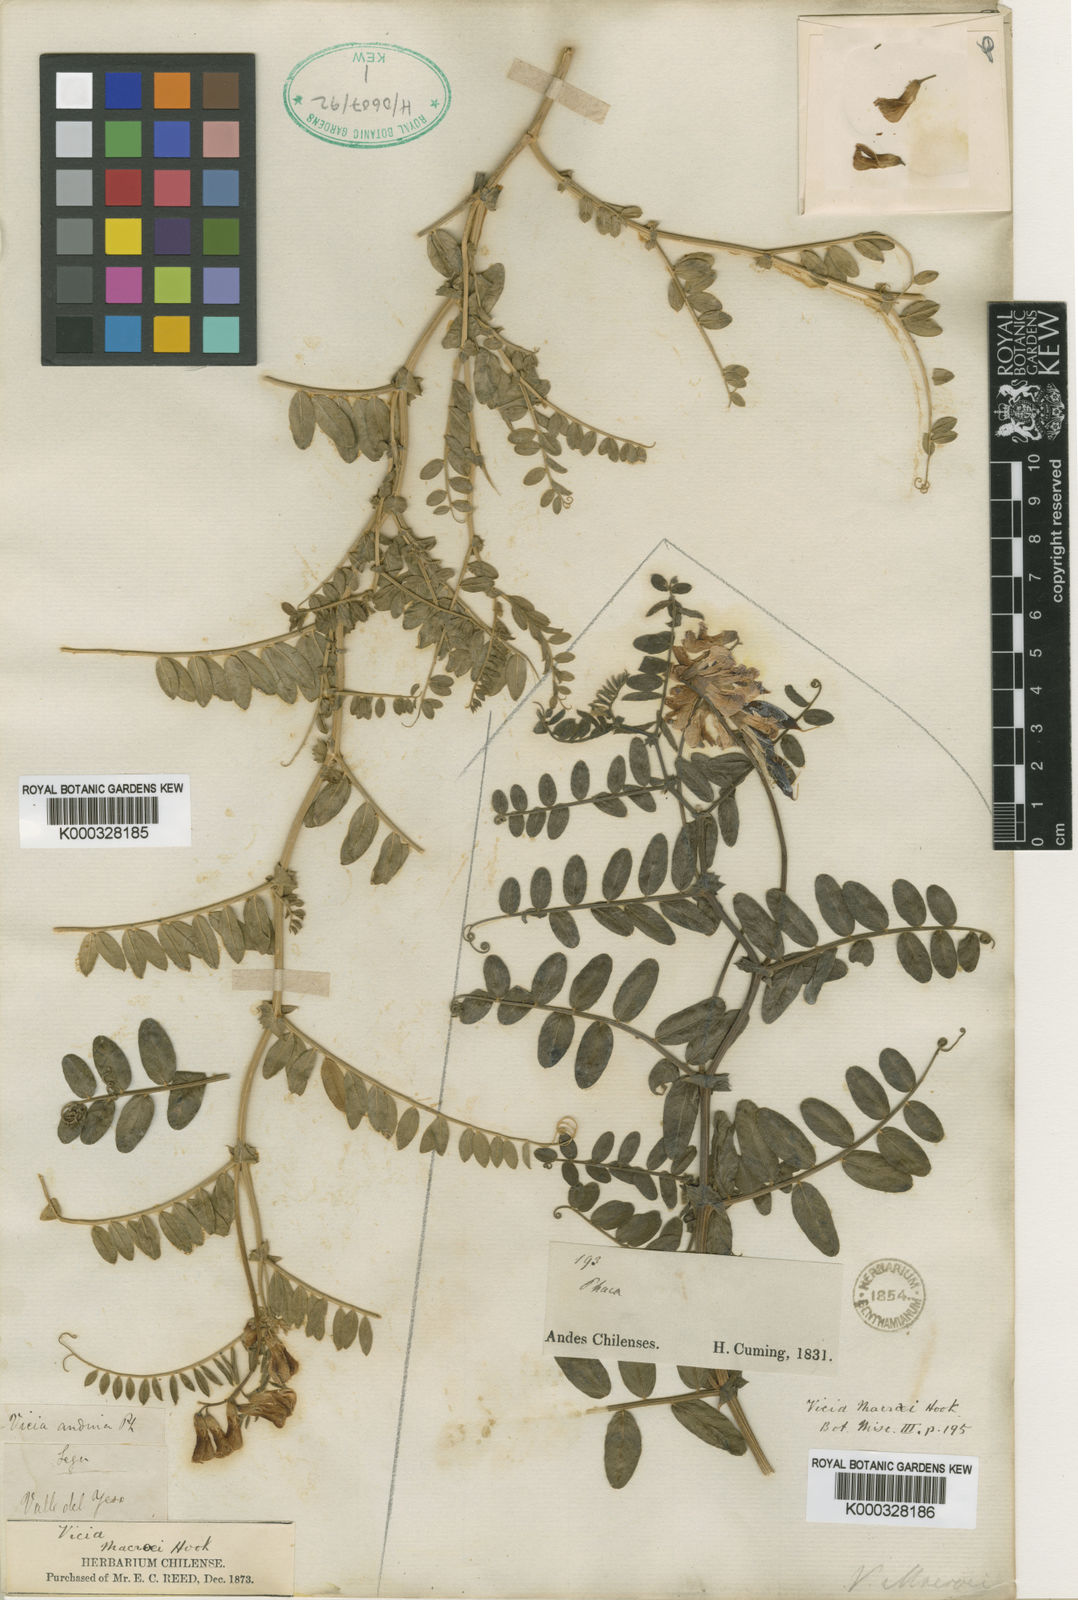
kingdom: Plantae
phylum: Tracheophyta
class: Magnoliopsida
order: Fabales
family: Fabaceae
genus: Vicia
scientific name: Vicia andina
